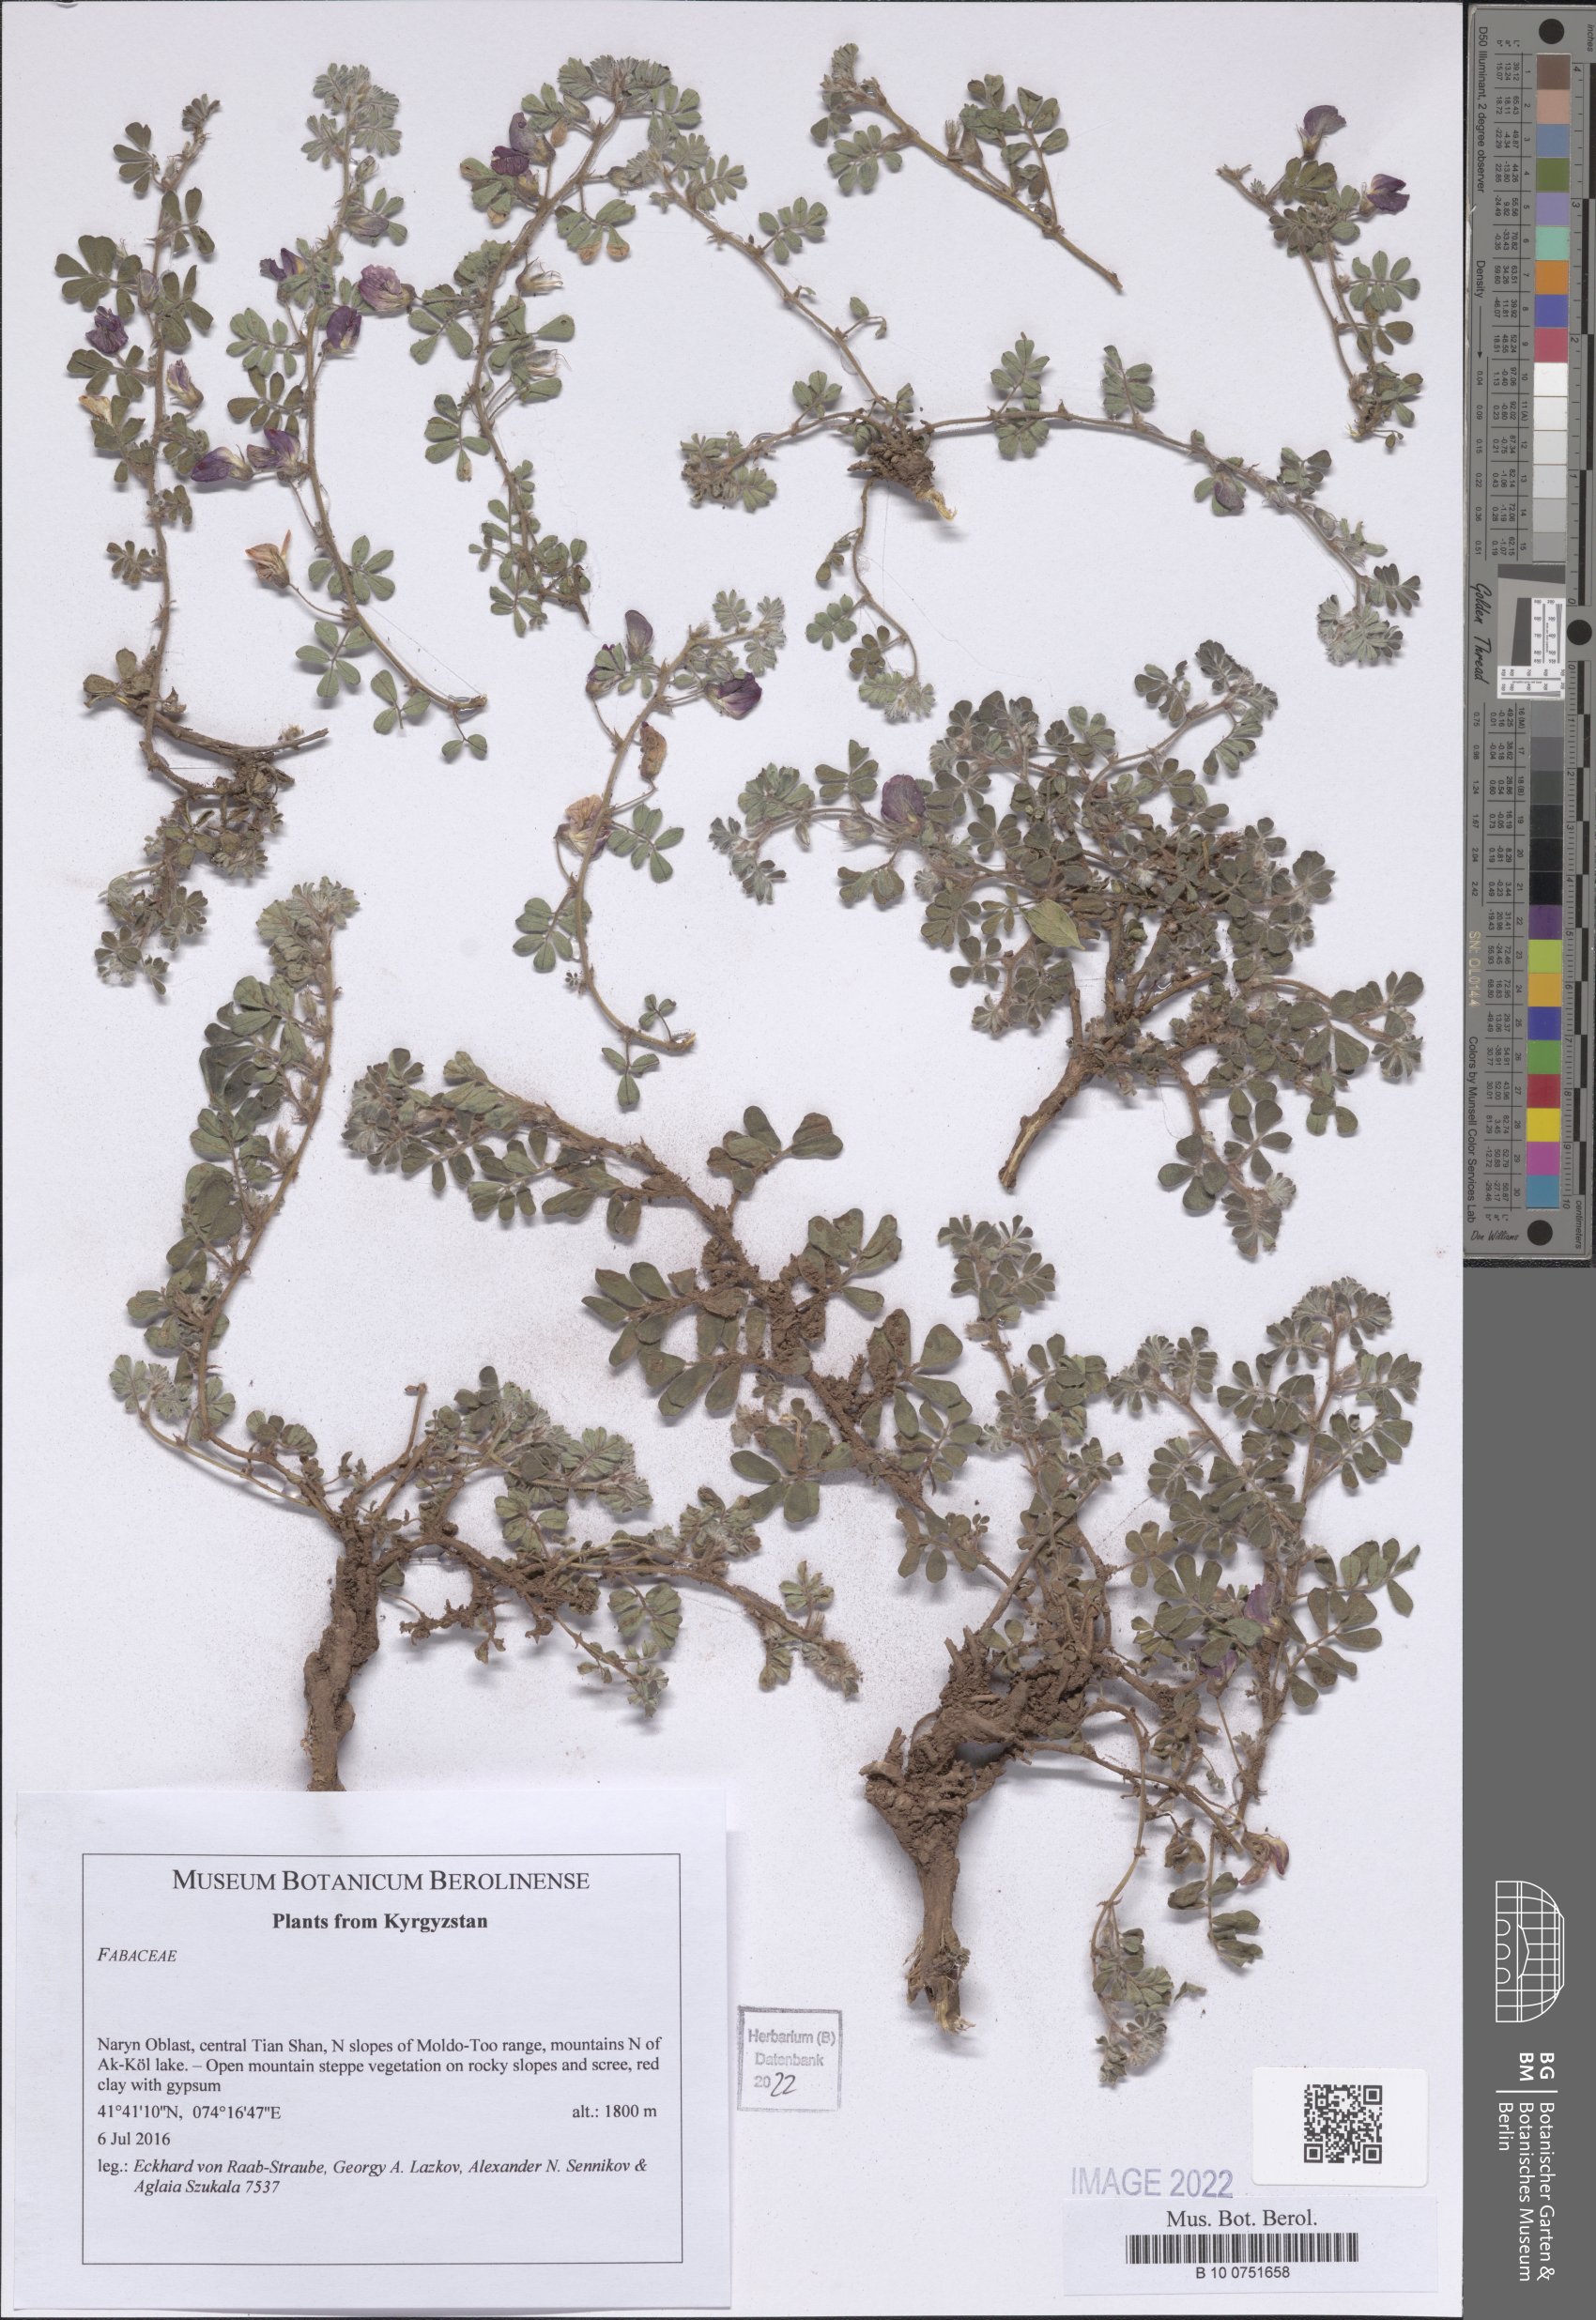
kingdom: Plantae
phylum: Tracheophyta
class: Magnoliopsida
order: Fabales
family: Fabaceae
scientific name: Fabaceae
